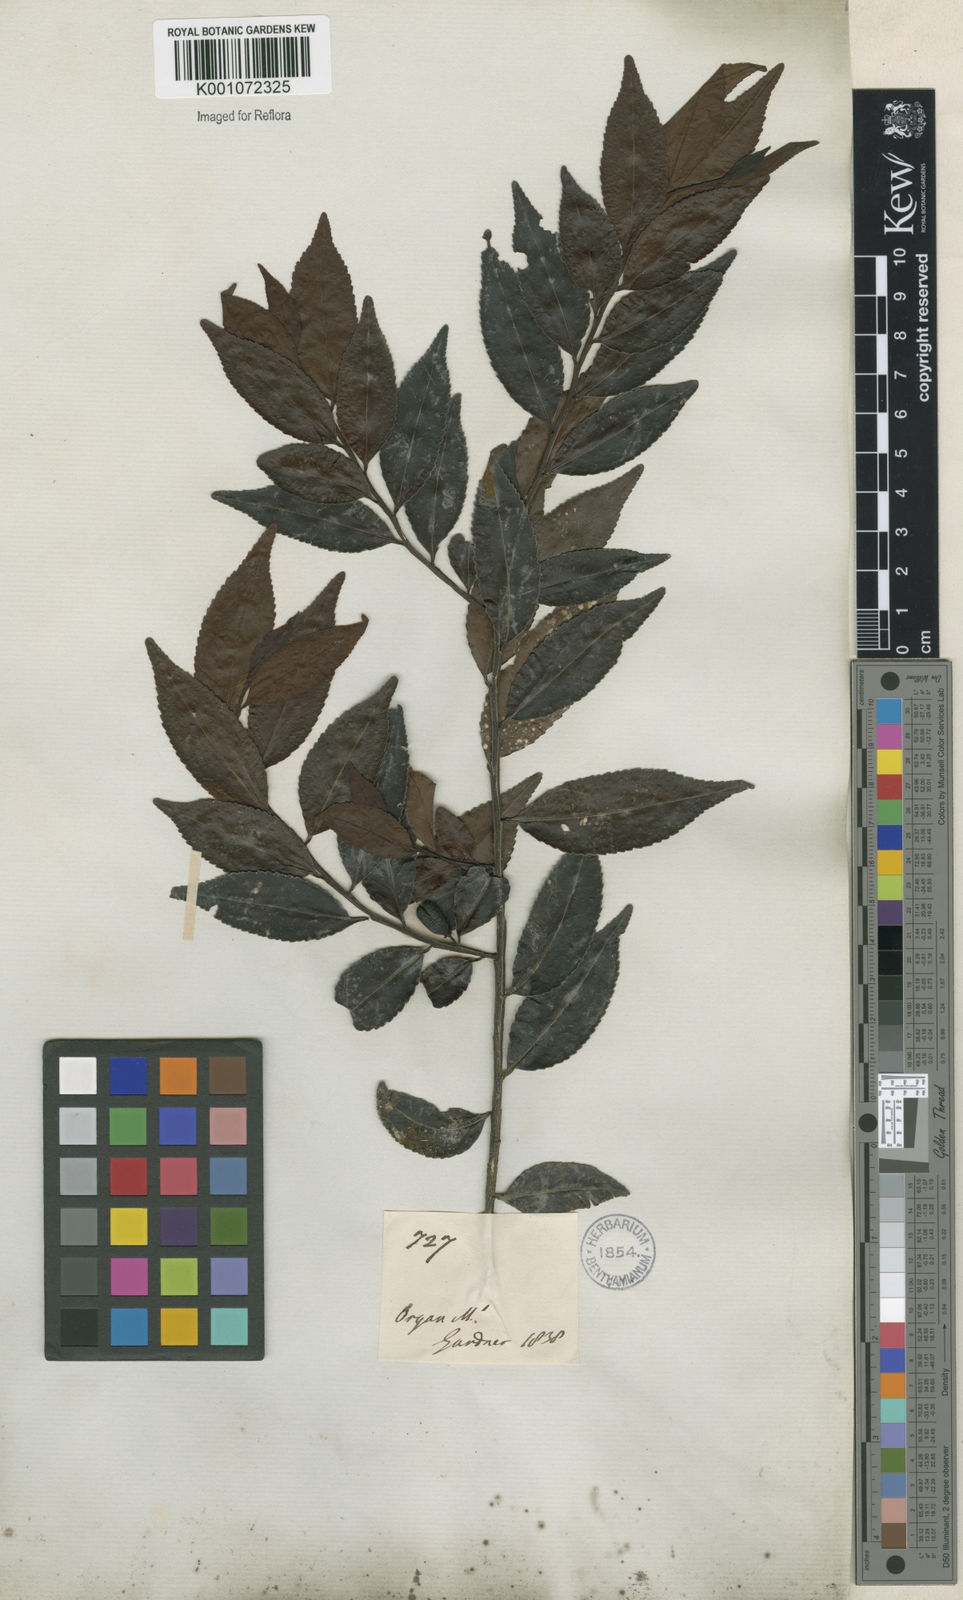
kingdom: Plantae
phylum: Tracheophyta
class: Magnoliopsida
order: Celastrales
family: Celastraceae
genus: Maytenus
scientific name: Maytenus
